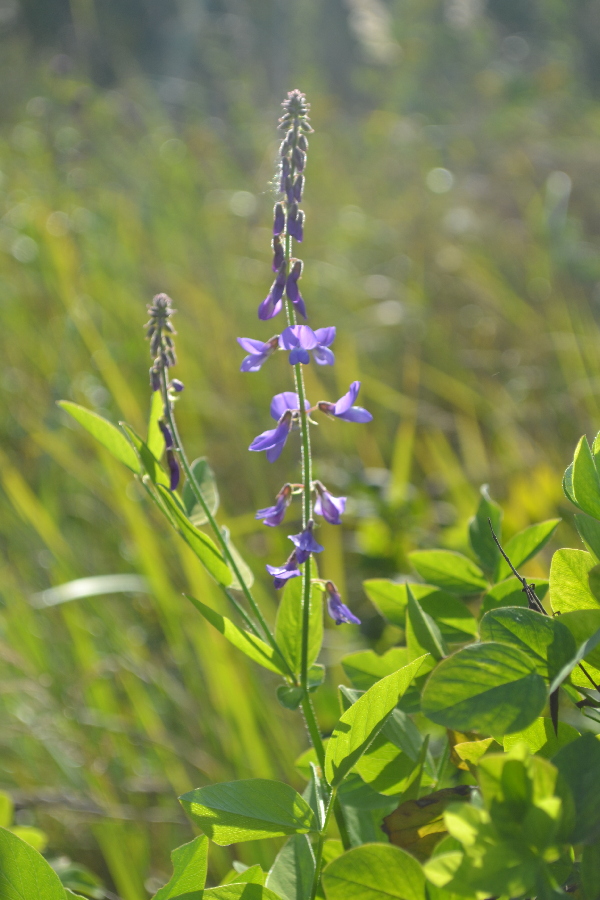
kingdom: Plantae
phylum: Tracheophyta
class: Magnoliopsida
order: Fabales
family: Fabaceae
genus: Galega
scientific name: Galega orientalis
